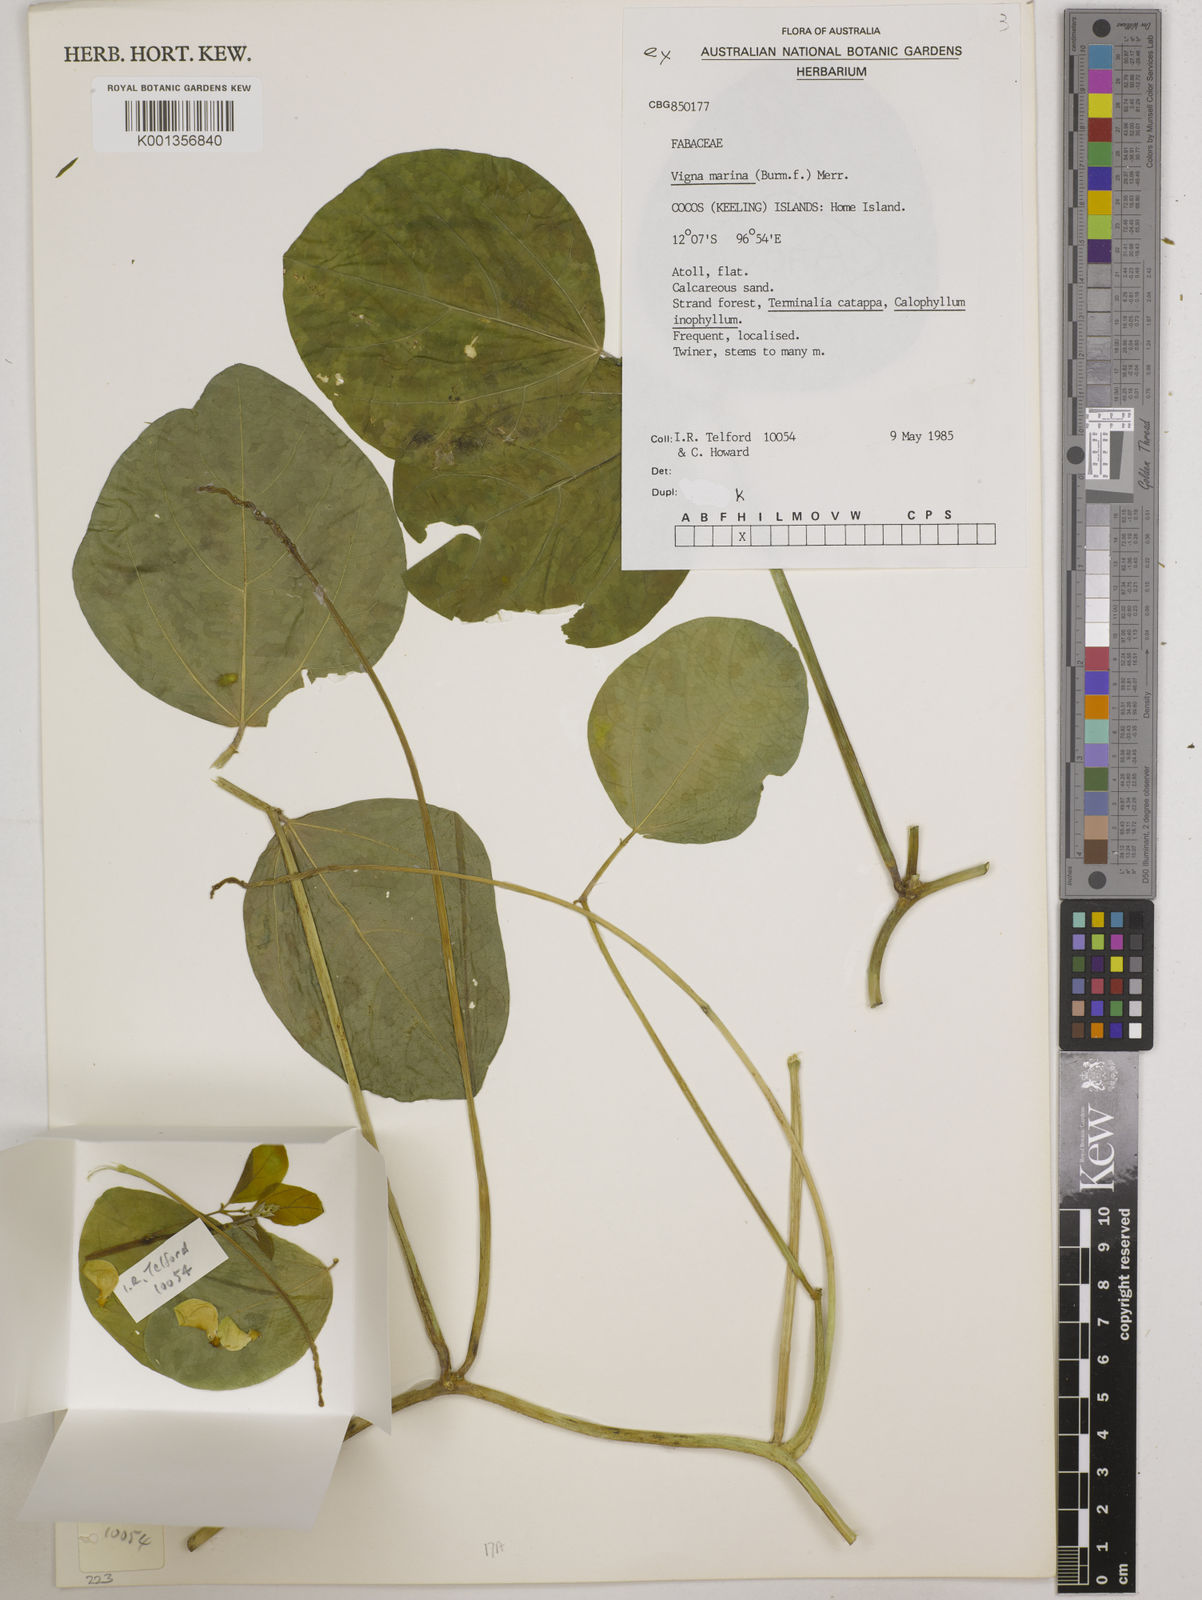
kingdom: Plantae
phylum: Tracheophyta
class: Magnoliopsida
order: Fabales
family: Fabaceae
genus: Vigna
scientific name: Vigna marina
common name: Dune-bean
